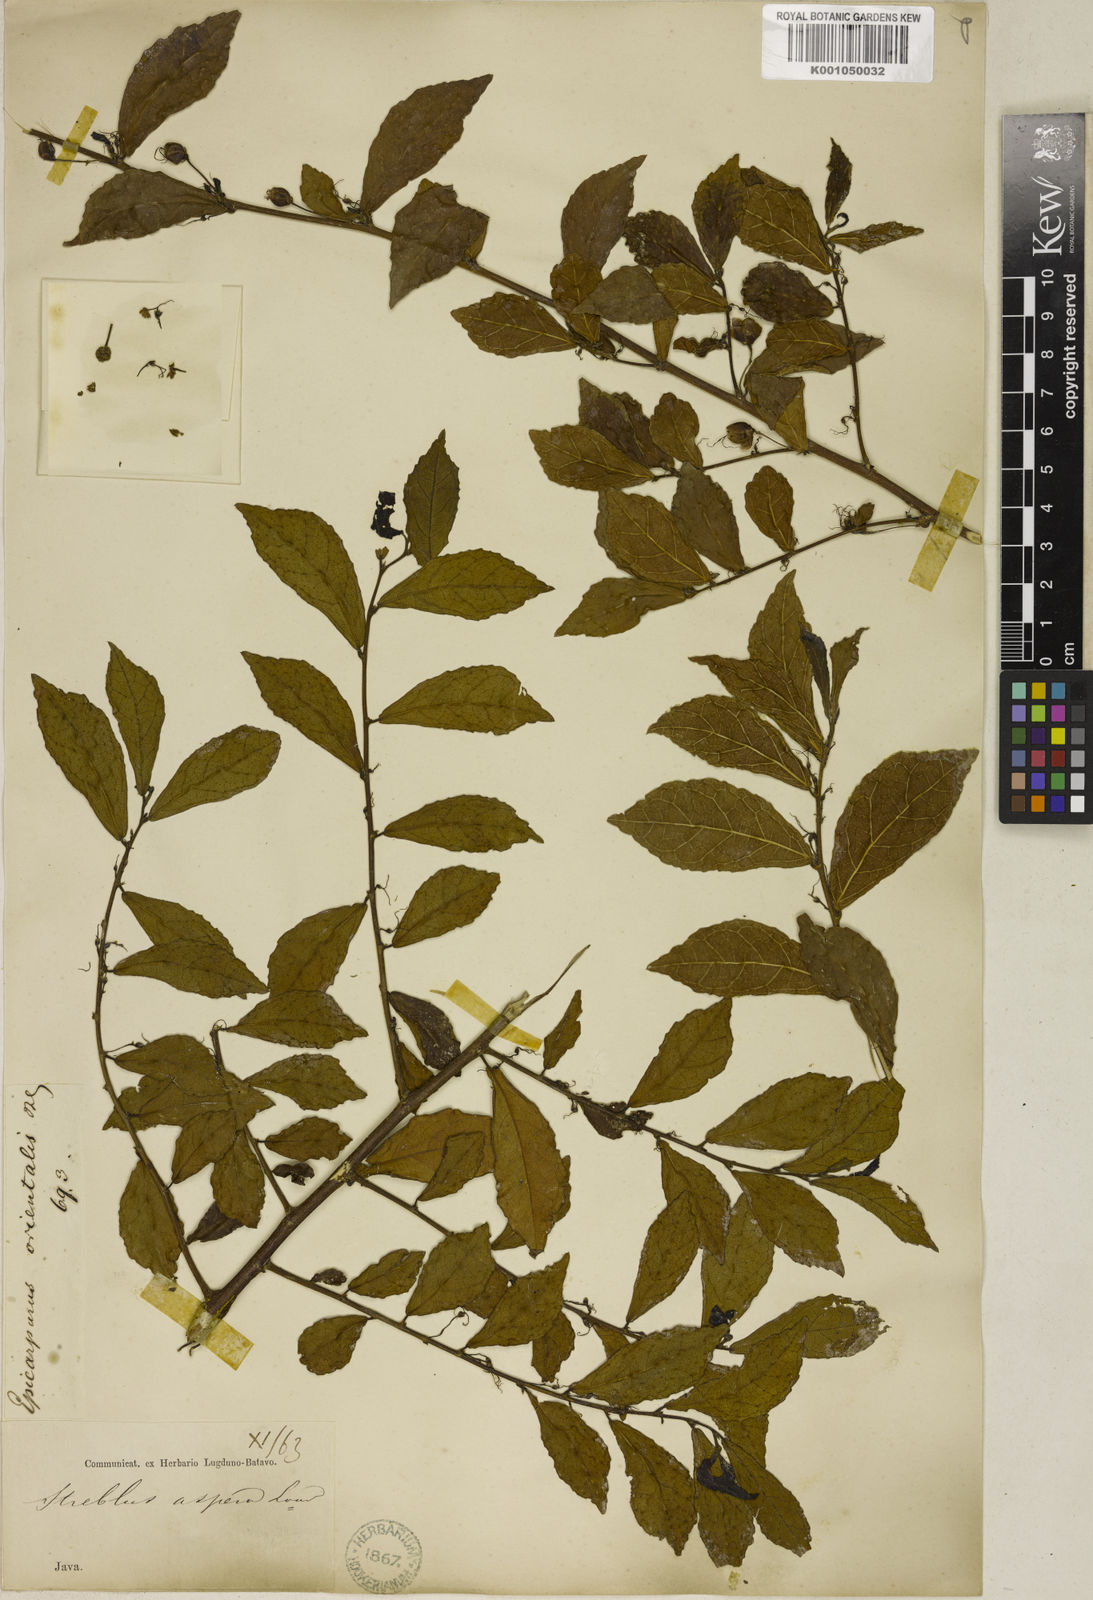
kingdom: Plantae
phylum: Tracheophyta
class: Magnoliopsida
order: Rosales
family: Moraceae
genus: Streblus
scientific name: Streblus asper
